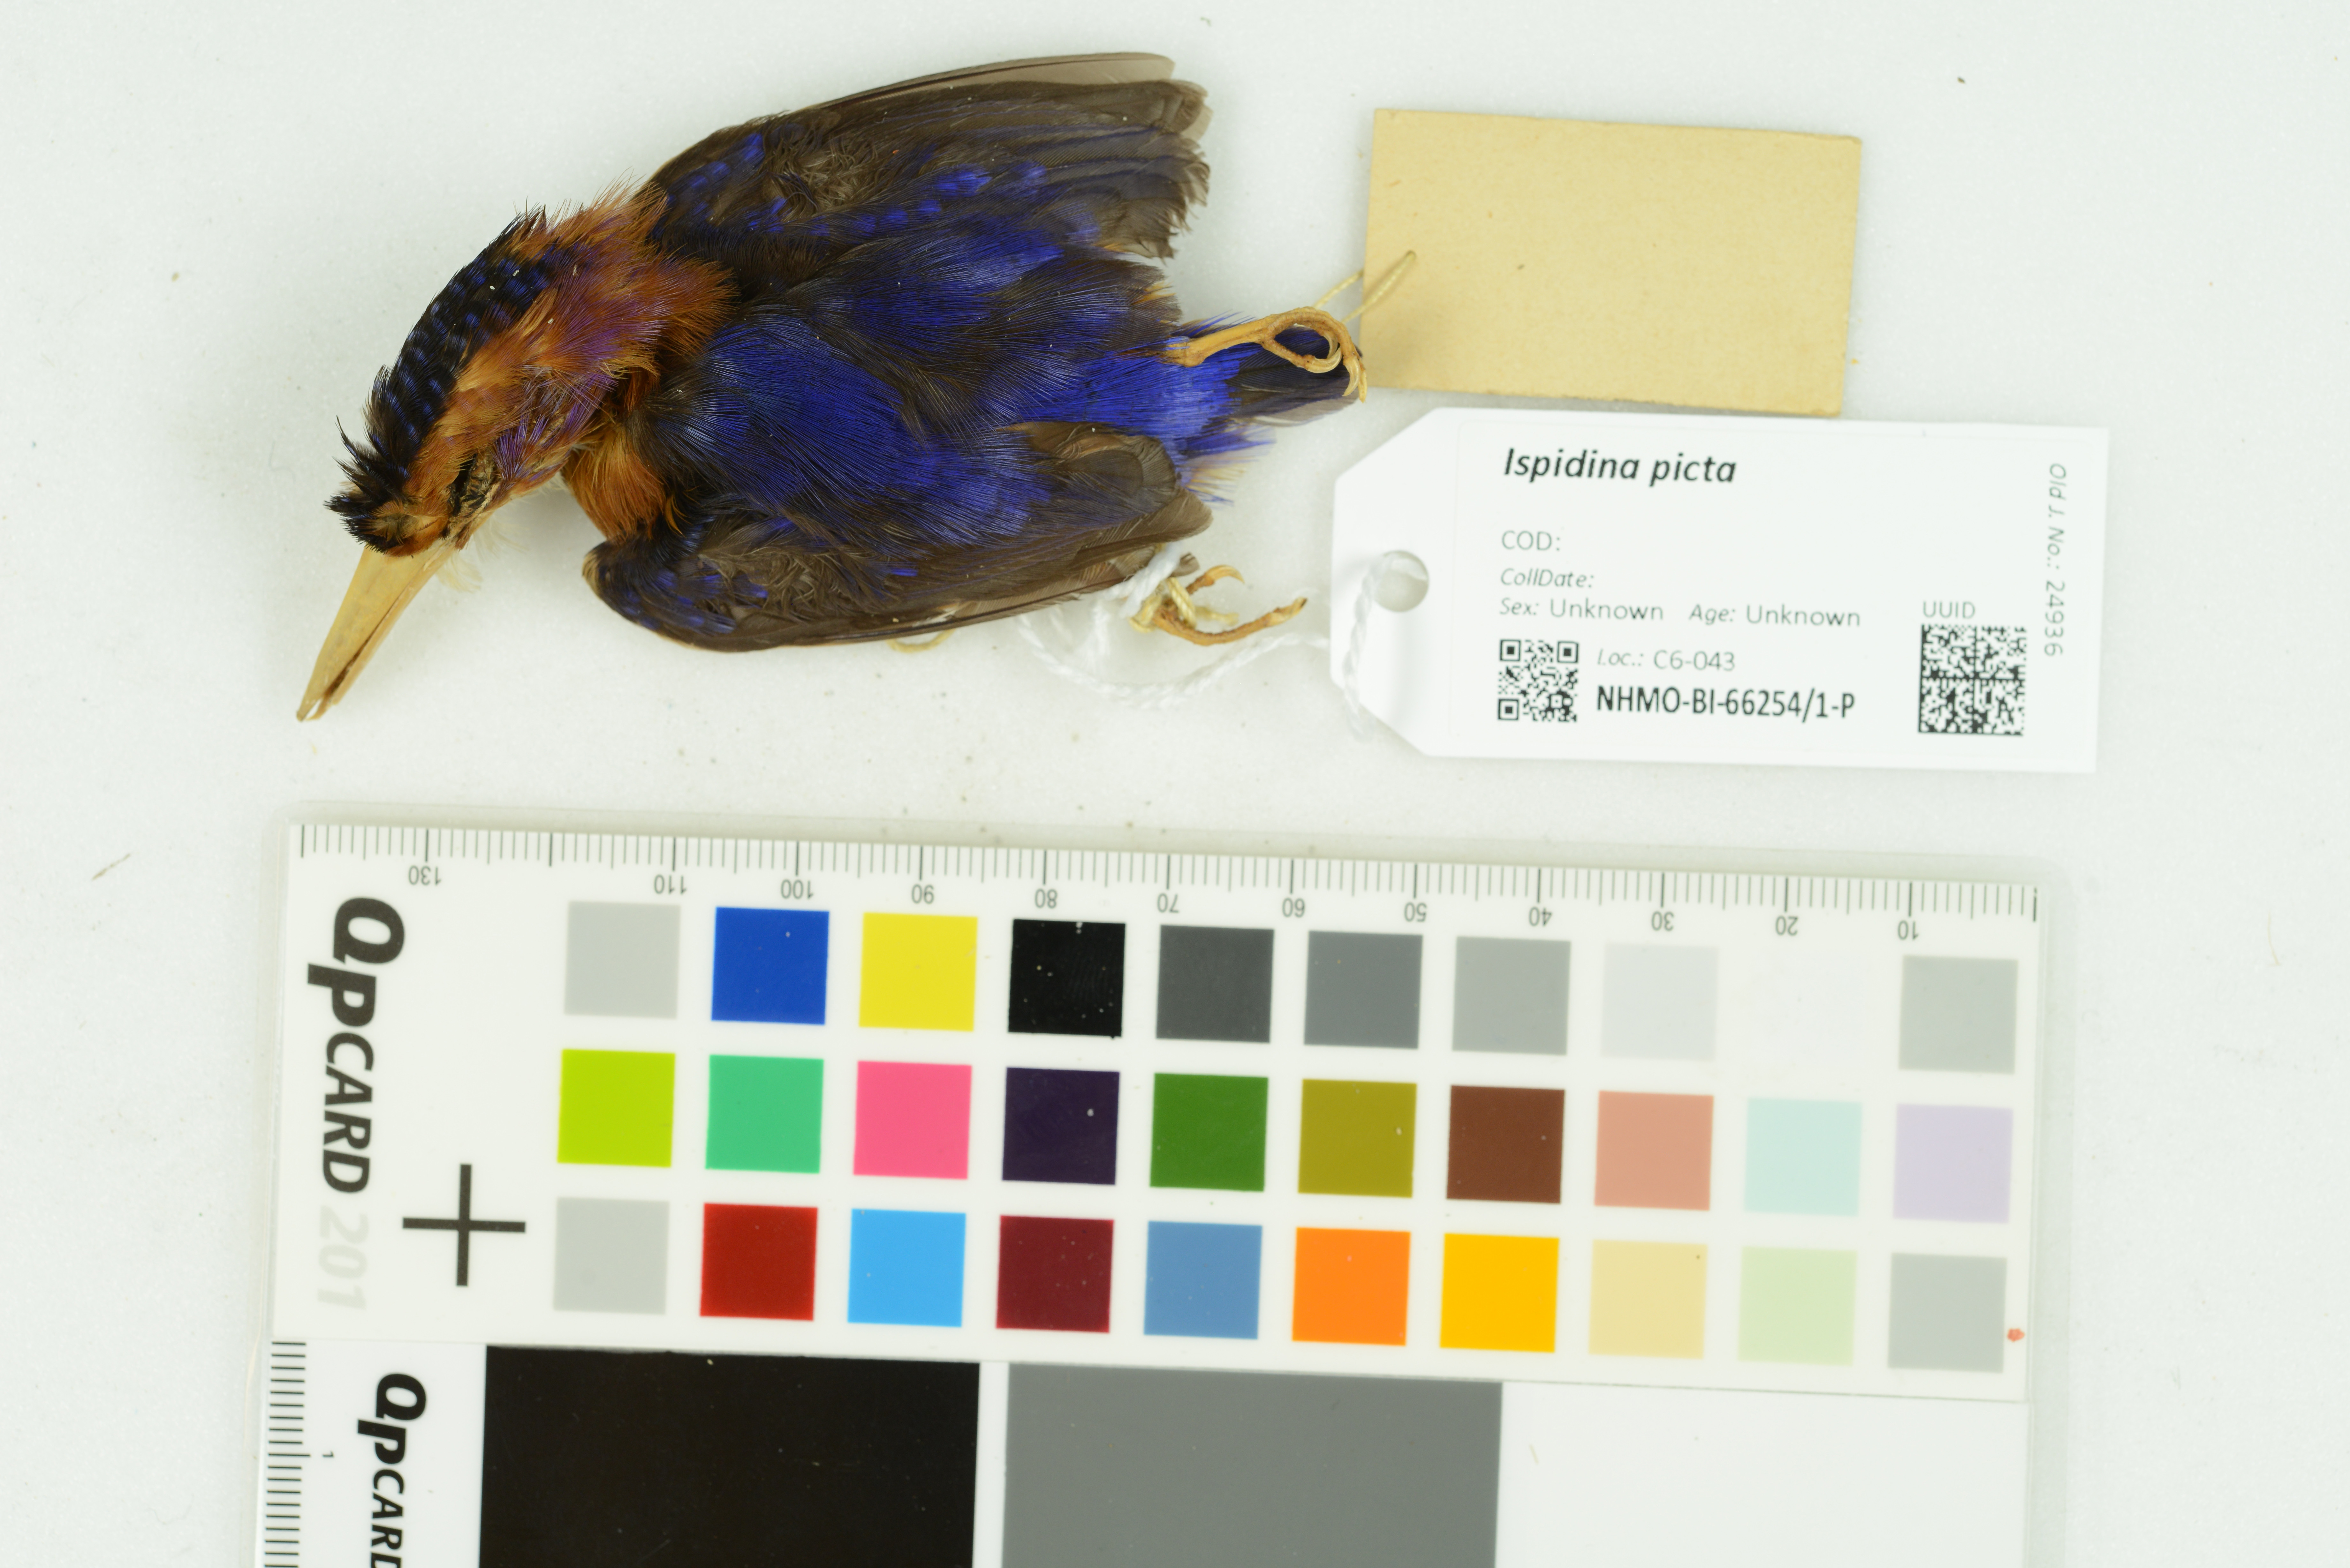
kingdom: Animalia
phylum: Chordata
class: Aves
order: Coraciiformes
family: Alcedinidae
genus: Ispidina
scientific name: Ispidina picta
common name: African pygmy-kingfisher
